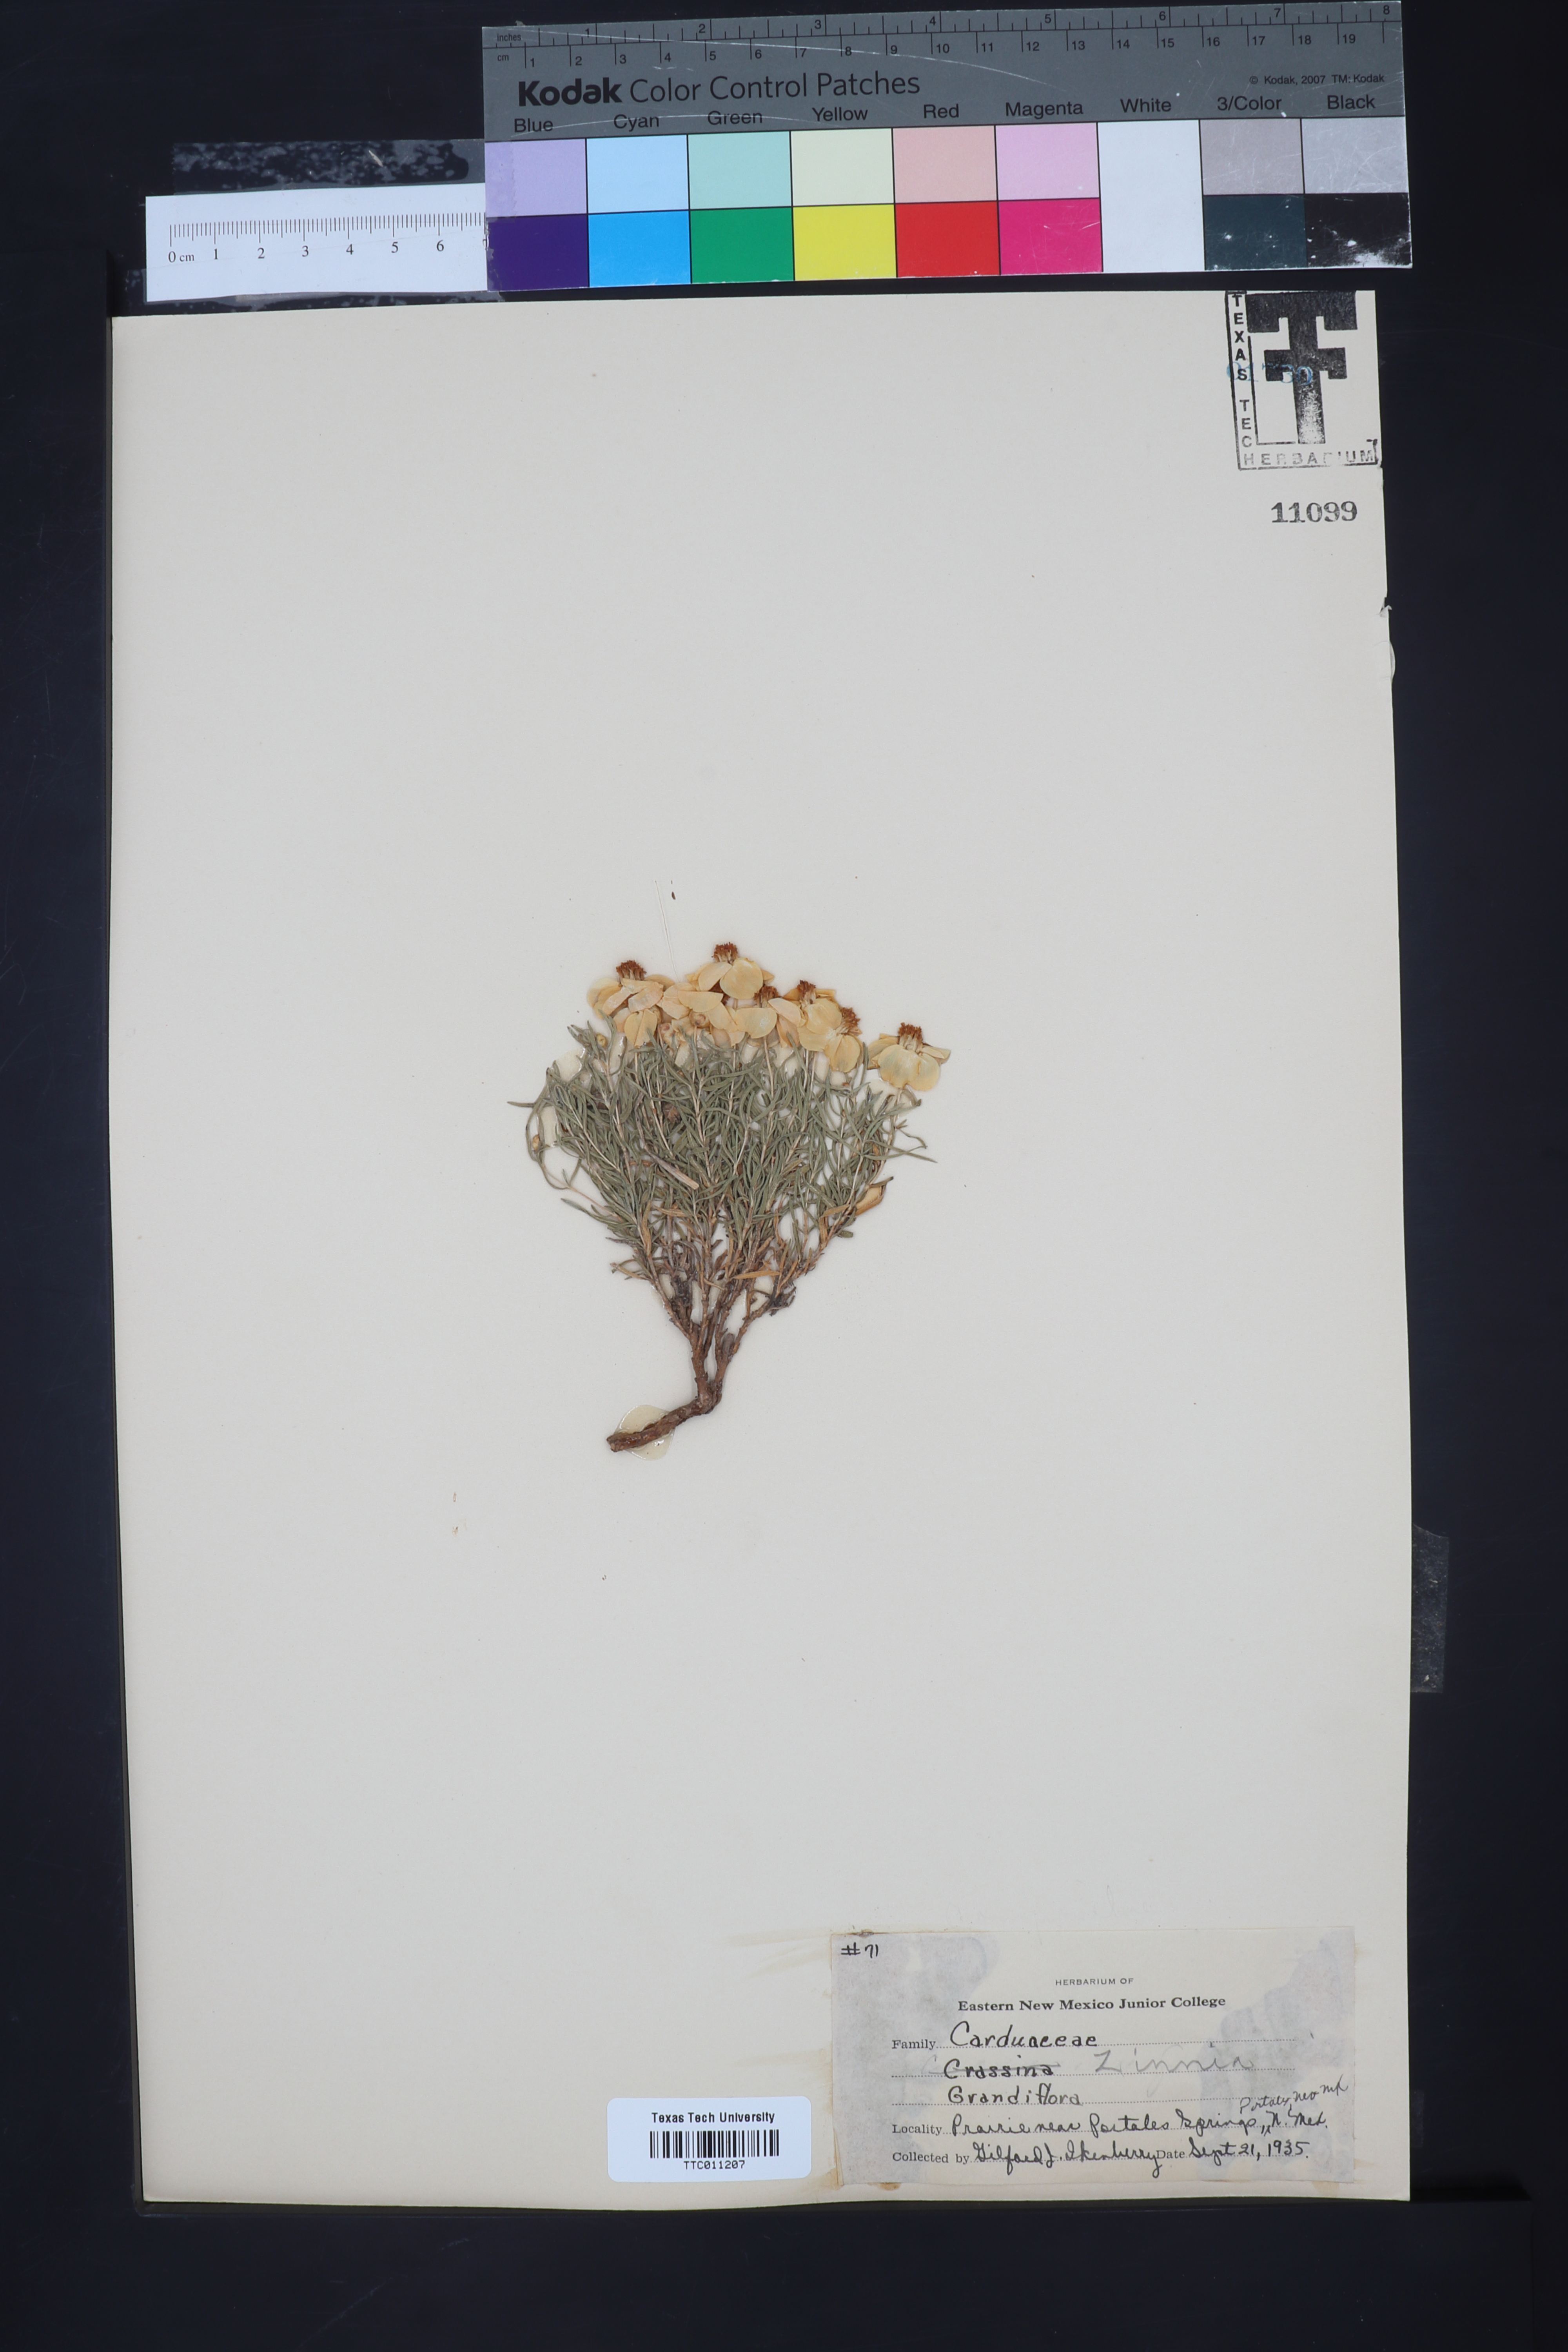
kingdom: Plantae
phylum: Tracheophyta
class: Magnoliopsida
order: Asterales
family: Asteraceae
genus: Zinnia
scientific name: Zinnia grandiflora
